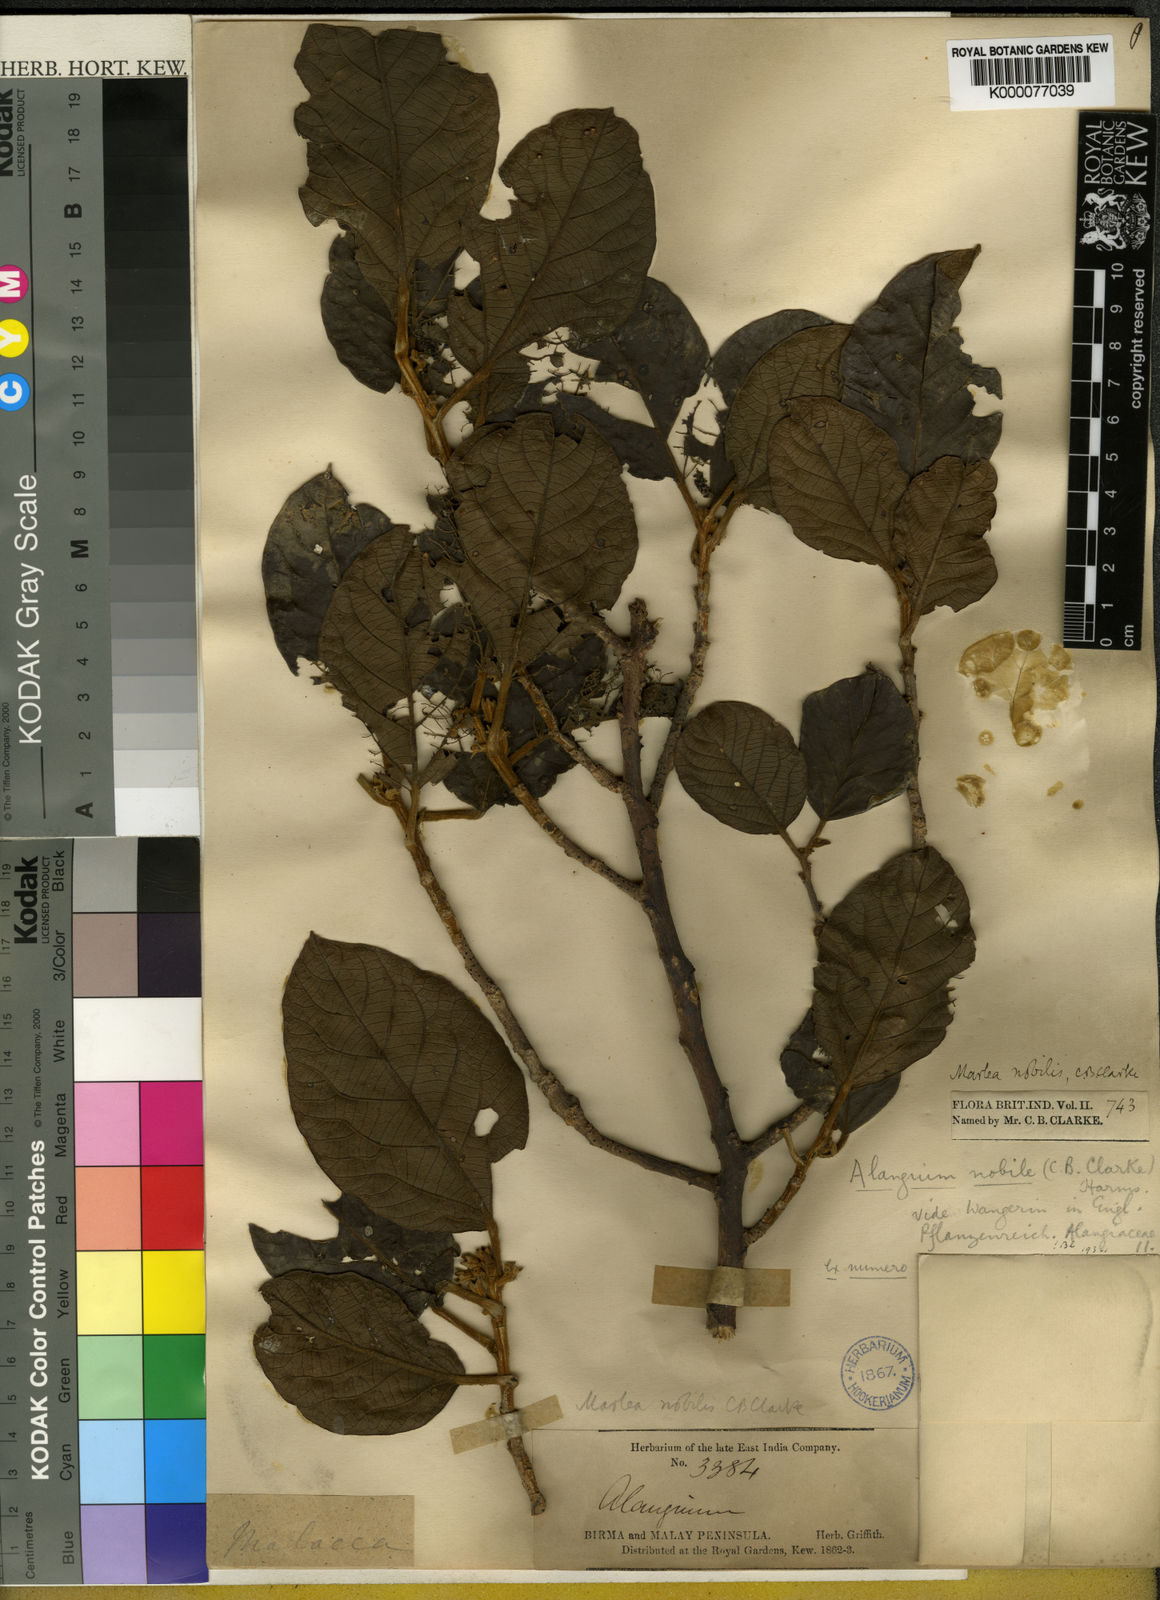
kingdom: Plantae
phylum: Tracheophyta
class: Magnoliopsida
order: Cornales
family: Cornaceae
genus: Alangium
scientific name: Alangium nobile
